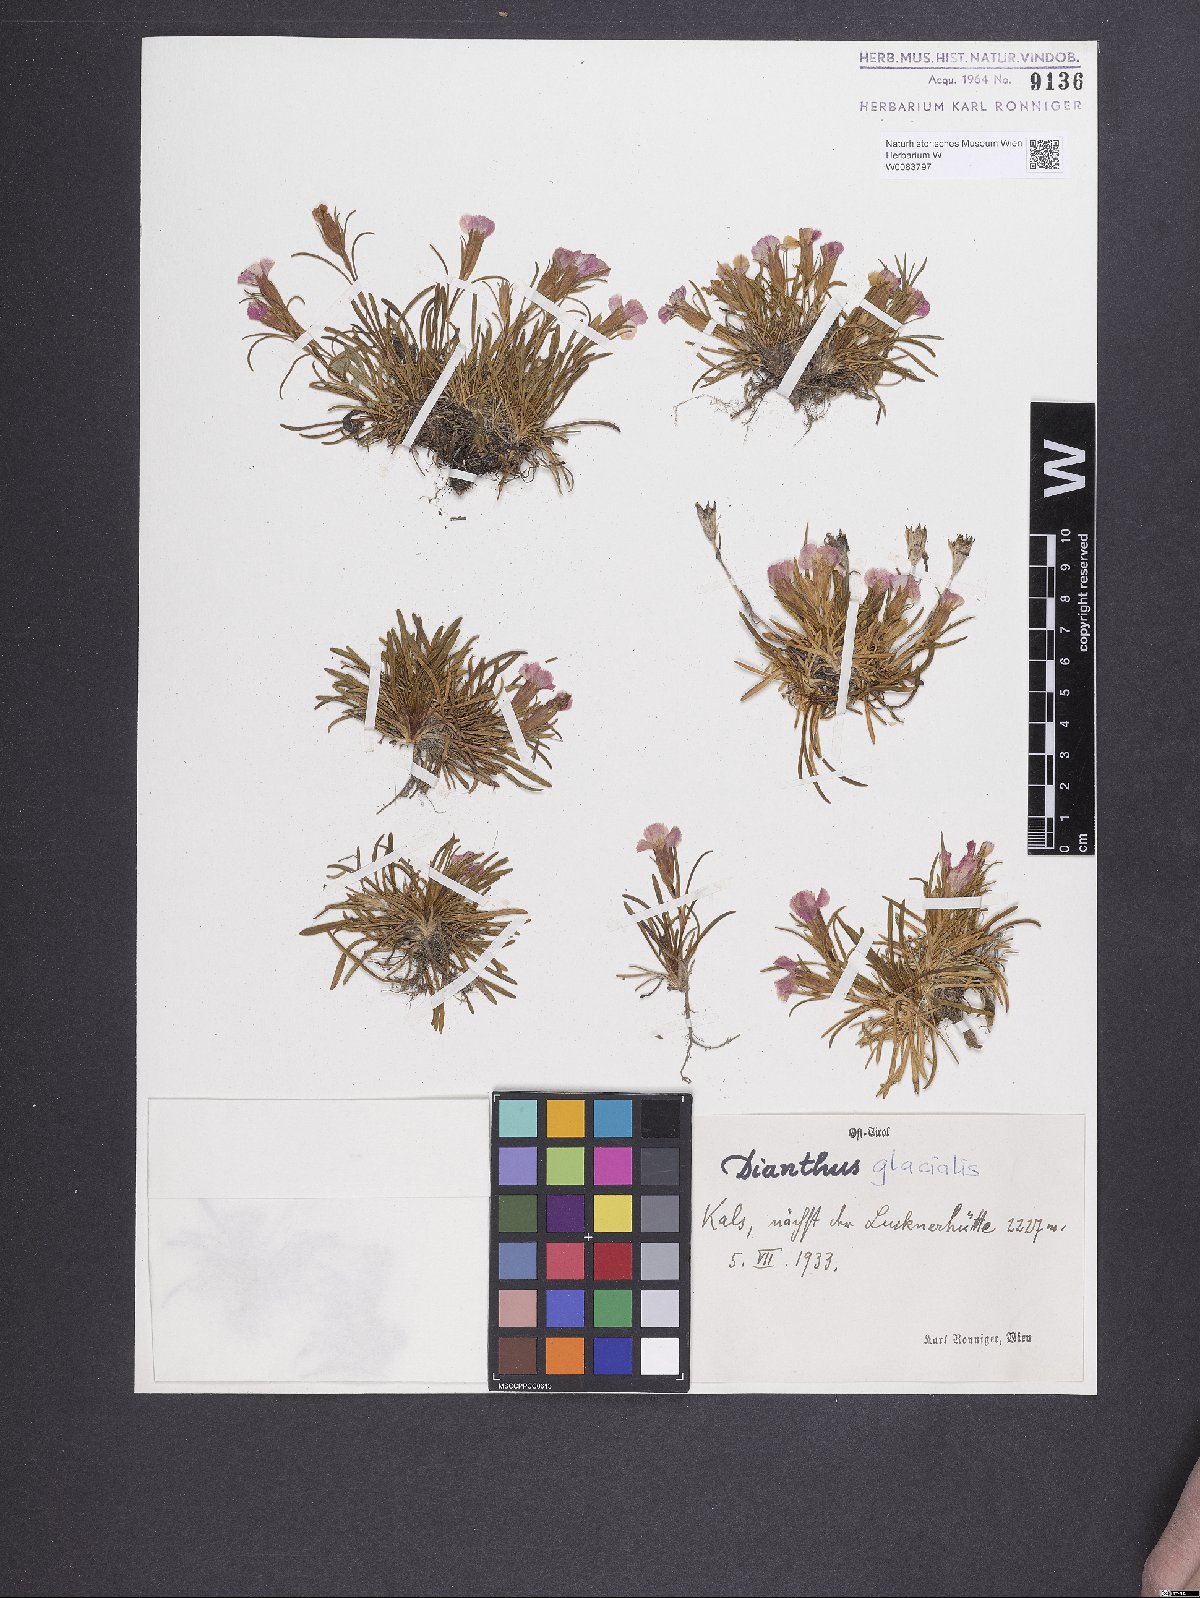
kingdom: Plantae
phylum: Tracheophyta
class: Magnoliopsida
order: Caryophyllales
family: Caryophyllaceae
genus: Dianthus
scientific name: Dianthus glacialis
